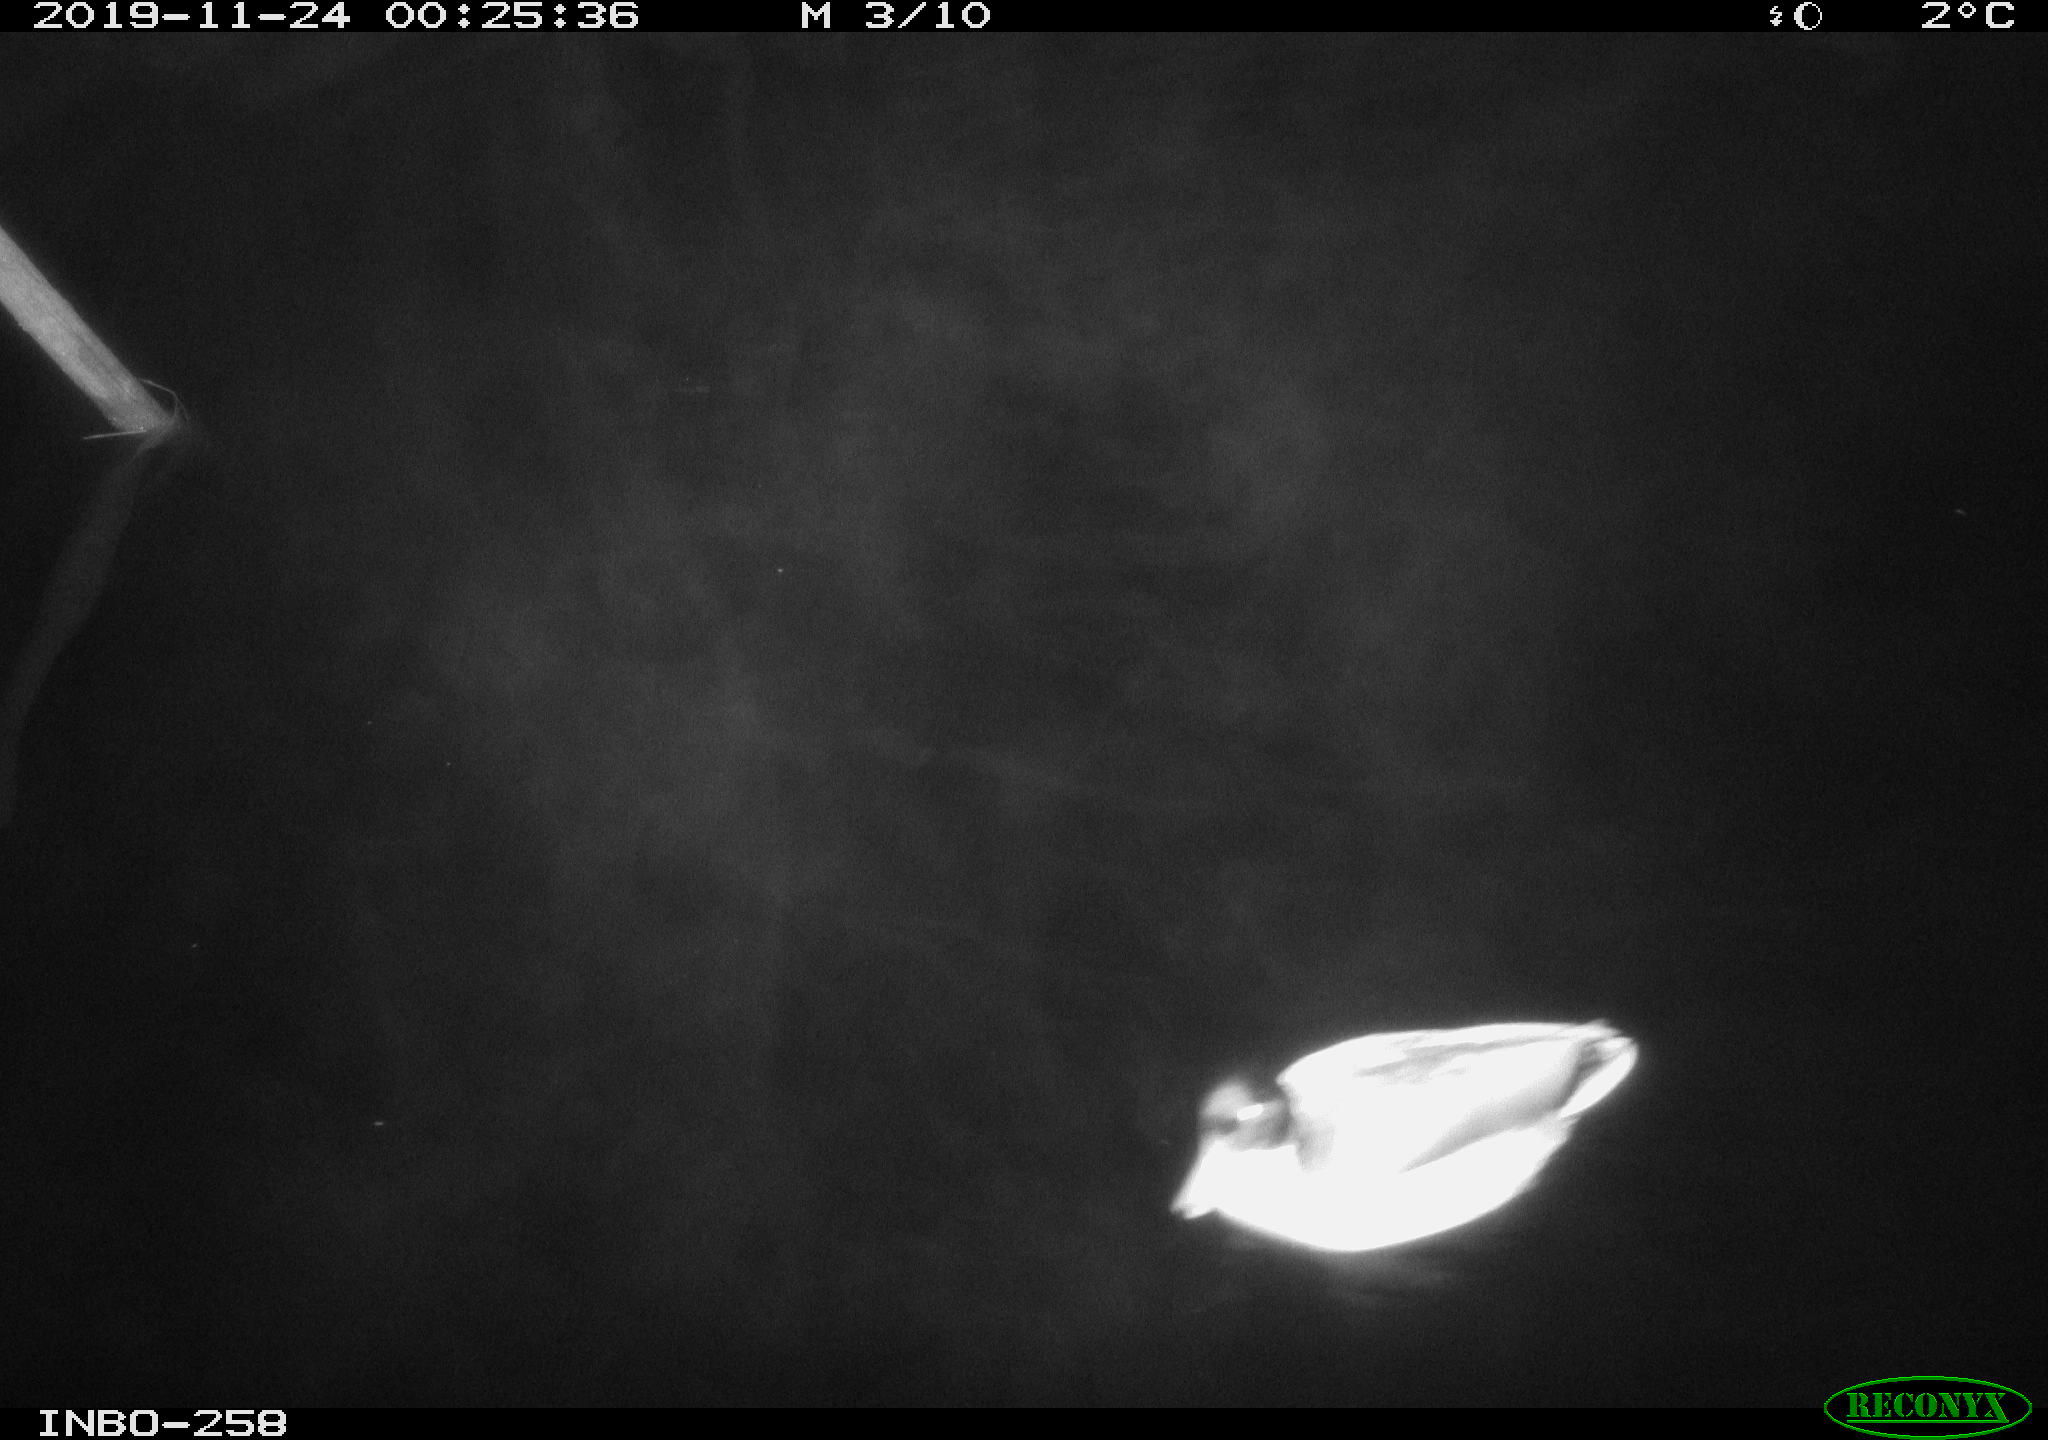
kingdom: Animalia
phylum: Chordata
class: Aves
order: Anseriformes
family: Anatidae
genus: Anas
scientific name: Anas platyrhynchos
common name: Mallard
